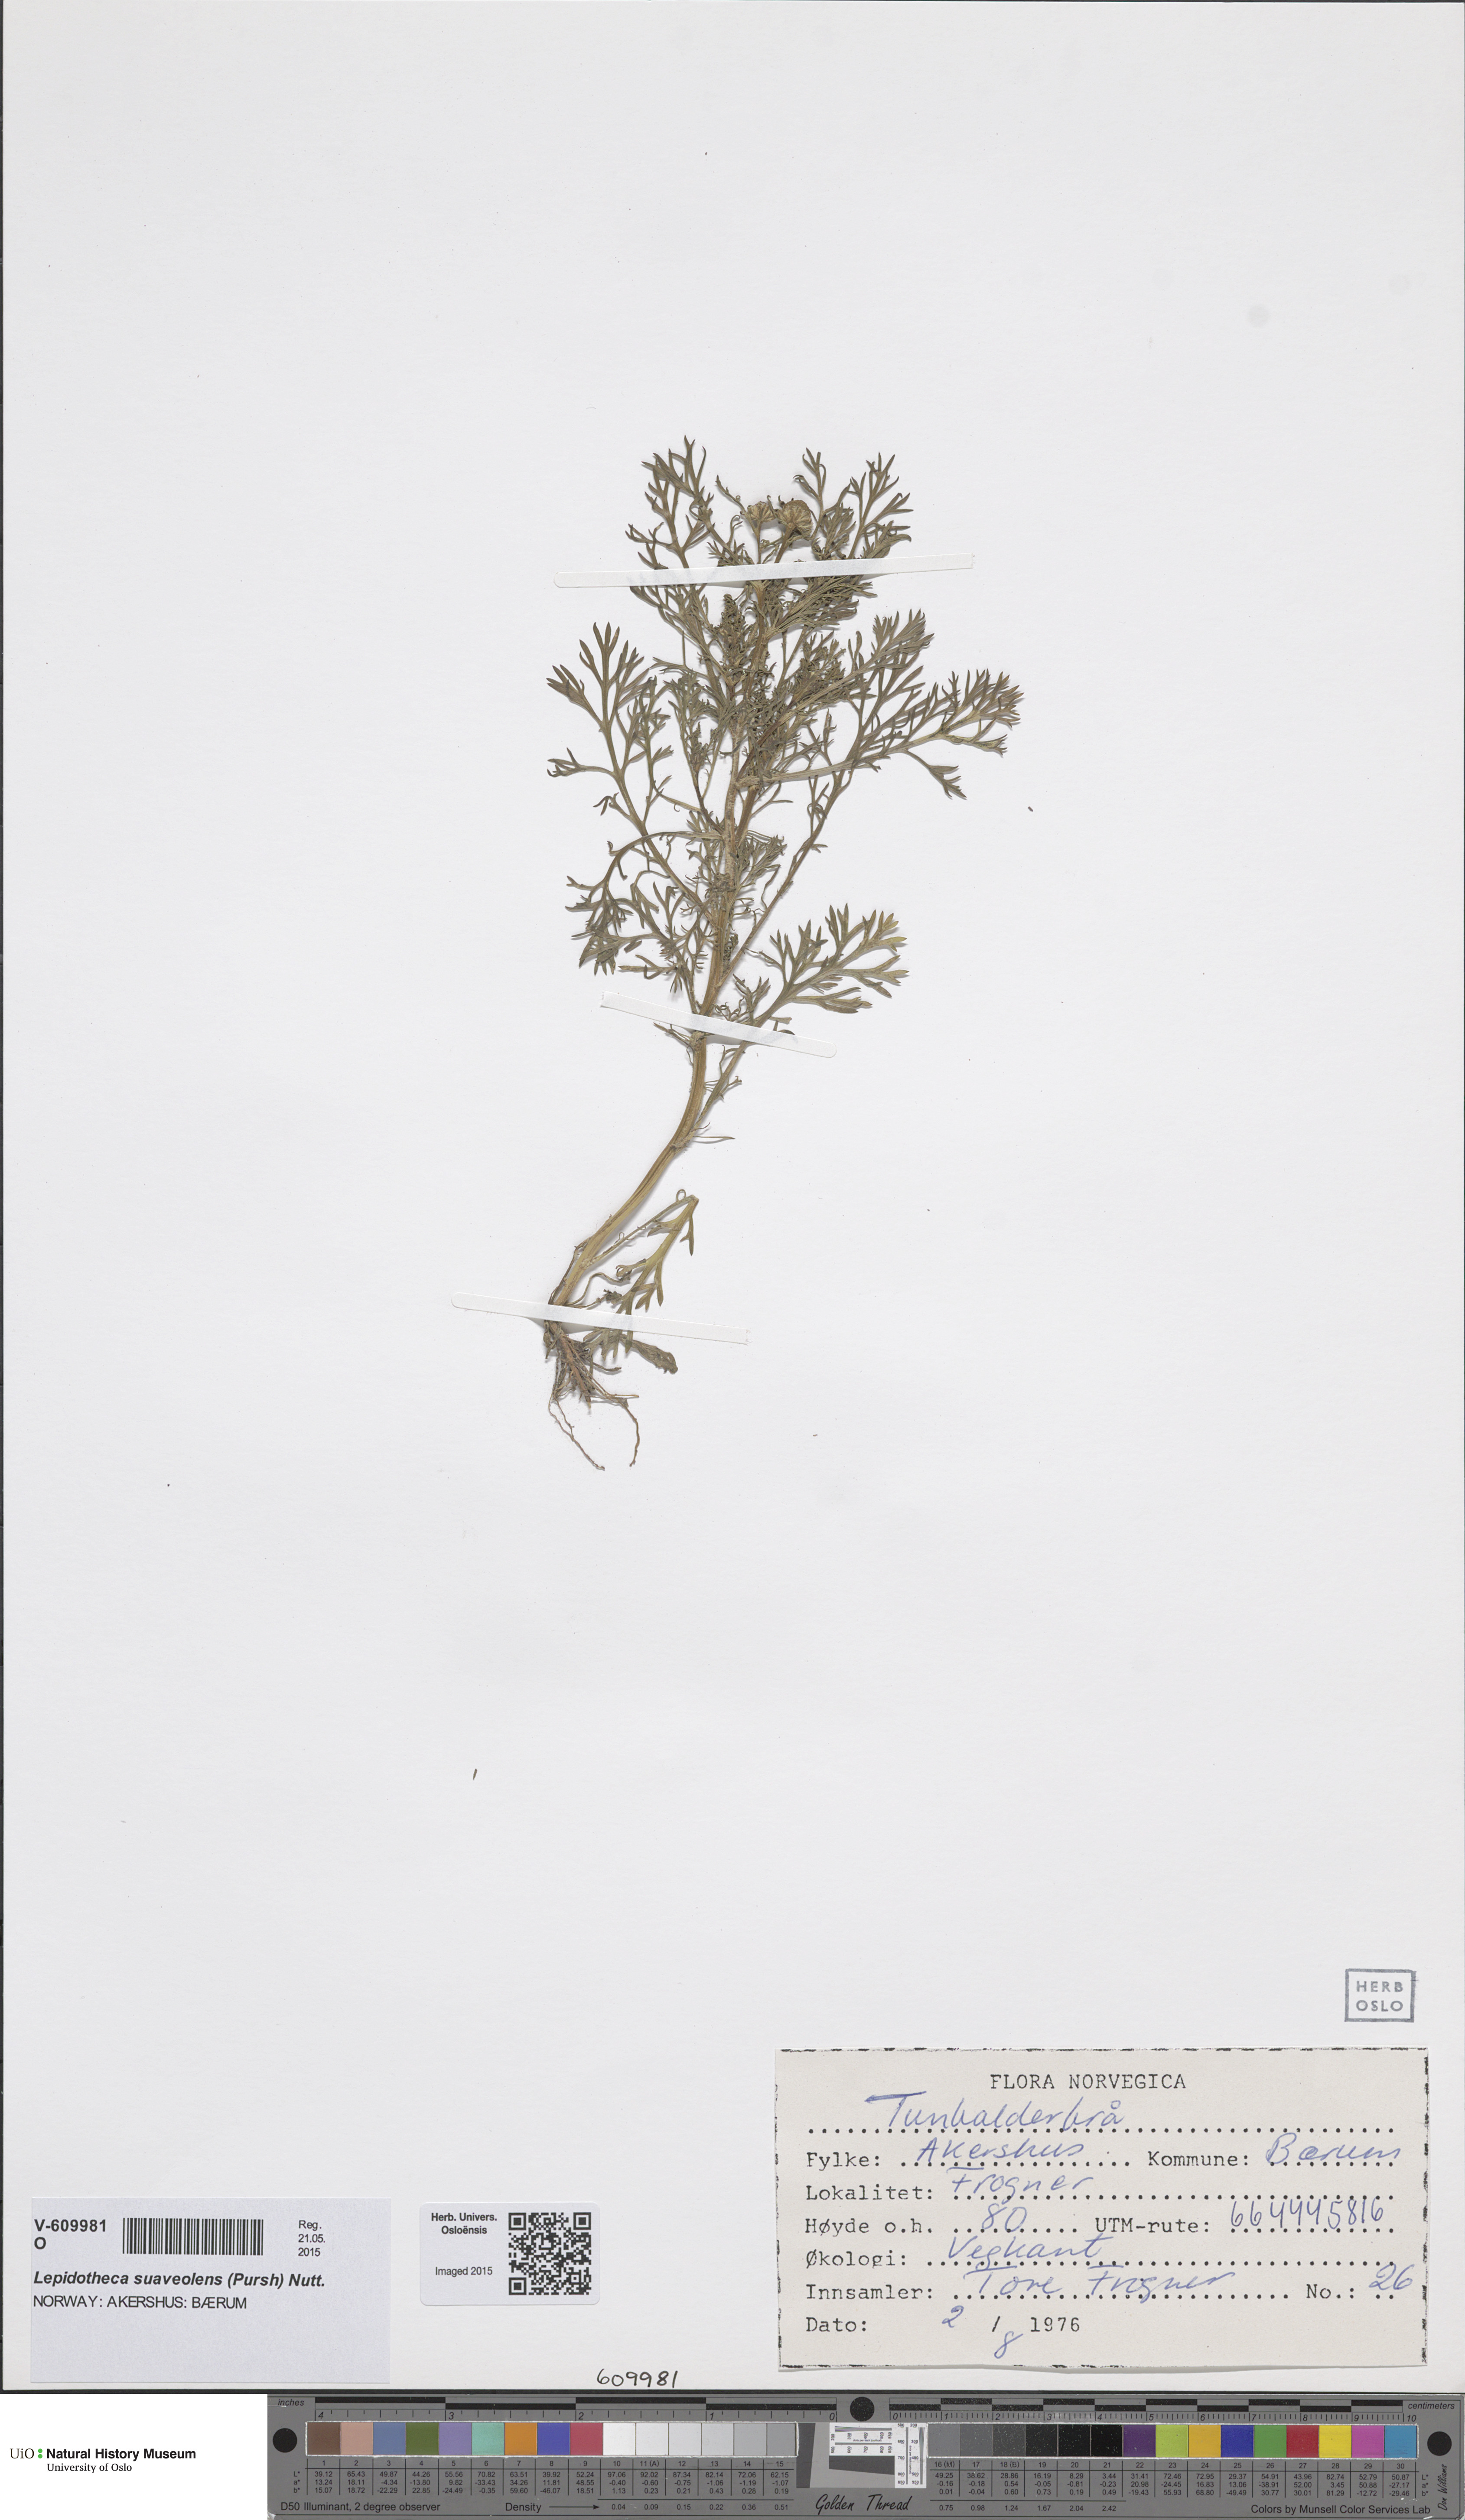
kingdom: Plantae
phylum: Tracheophyta
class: Magnoliopsida
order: Asterales
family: Asteraceae
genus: Matricaria
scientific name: Matricaria discoidea
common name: Disc mayweed
